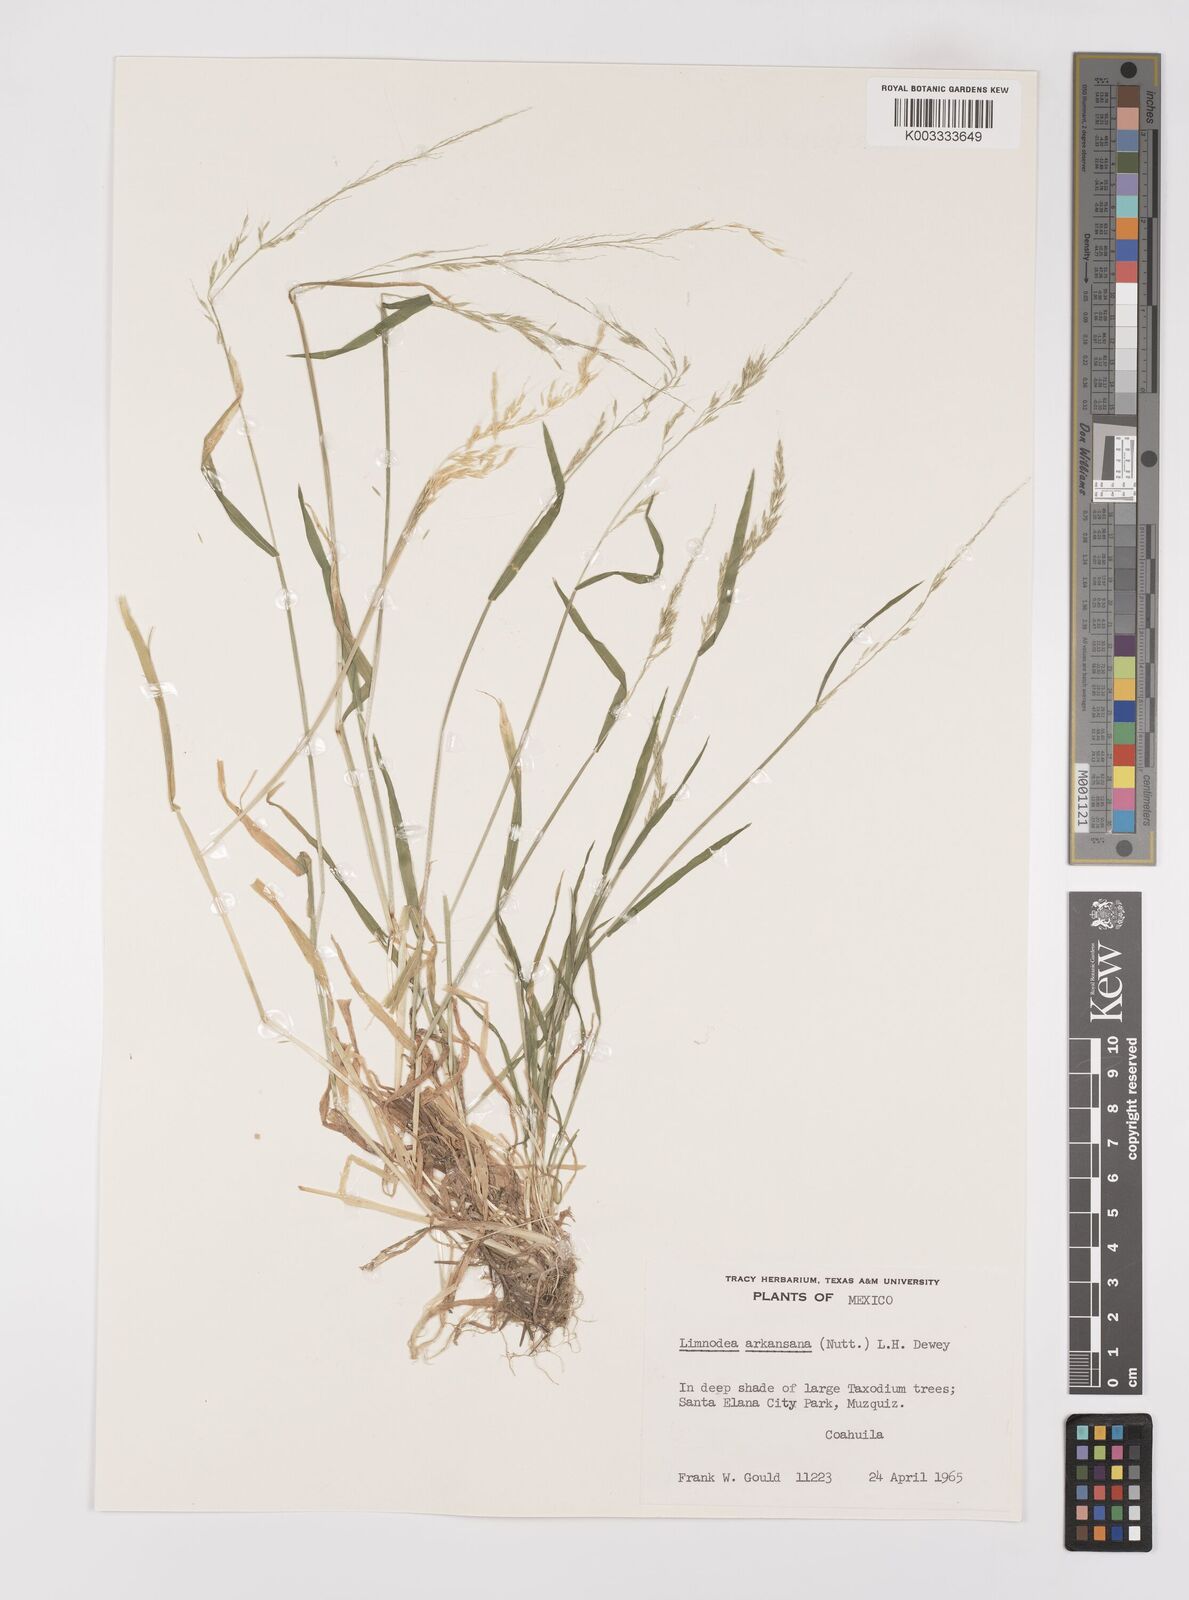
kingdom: Plantae
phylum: Tracheophyta
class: Liliopsida
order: Poales
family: Poaceae
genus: Limnodea
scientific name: Limnodea arkansana
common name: Ozark-grass
